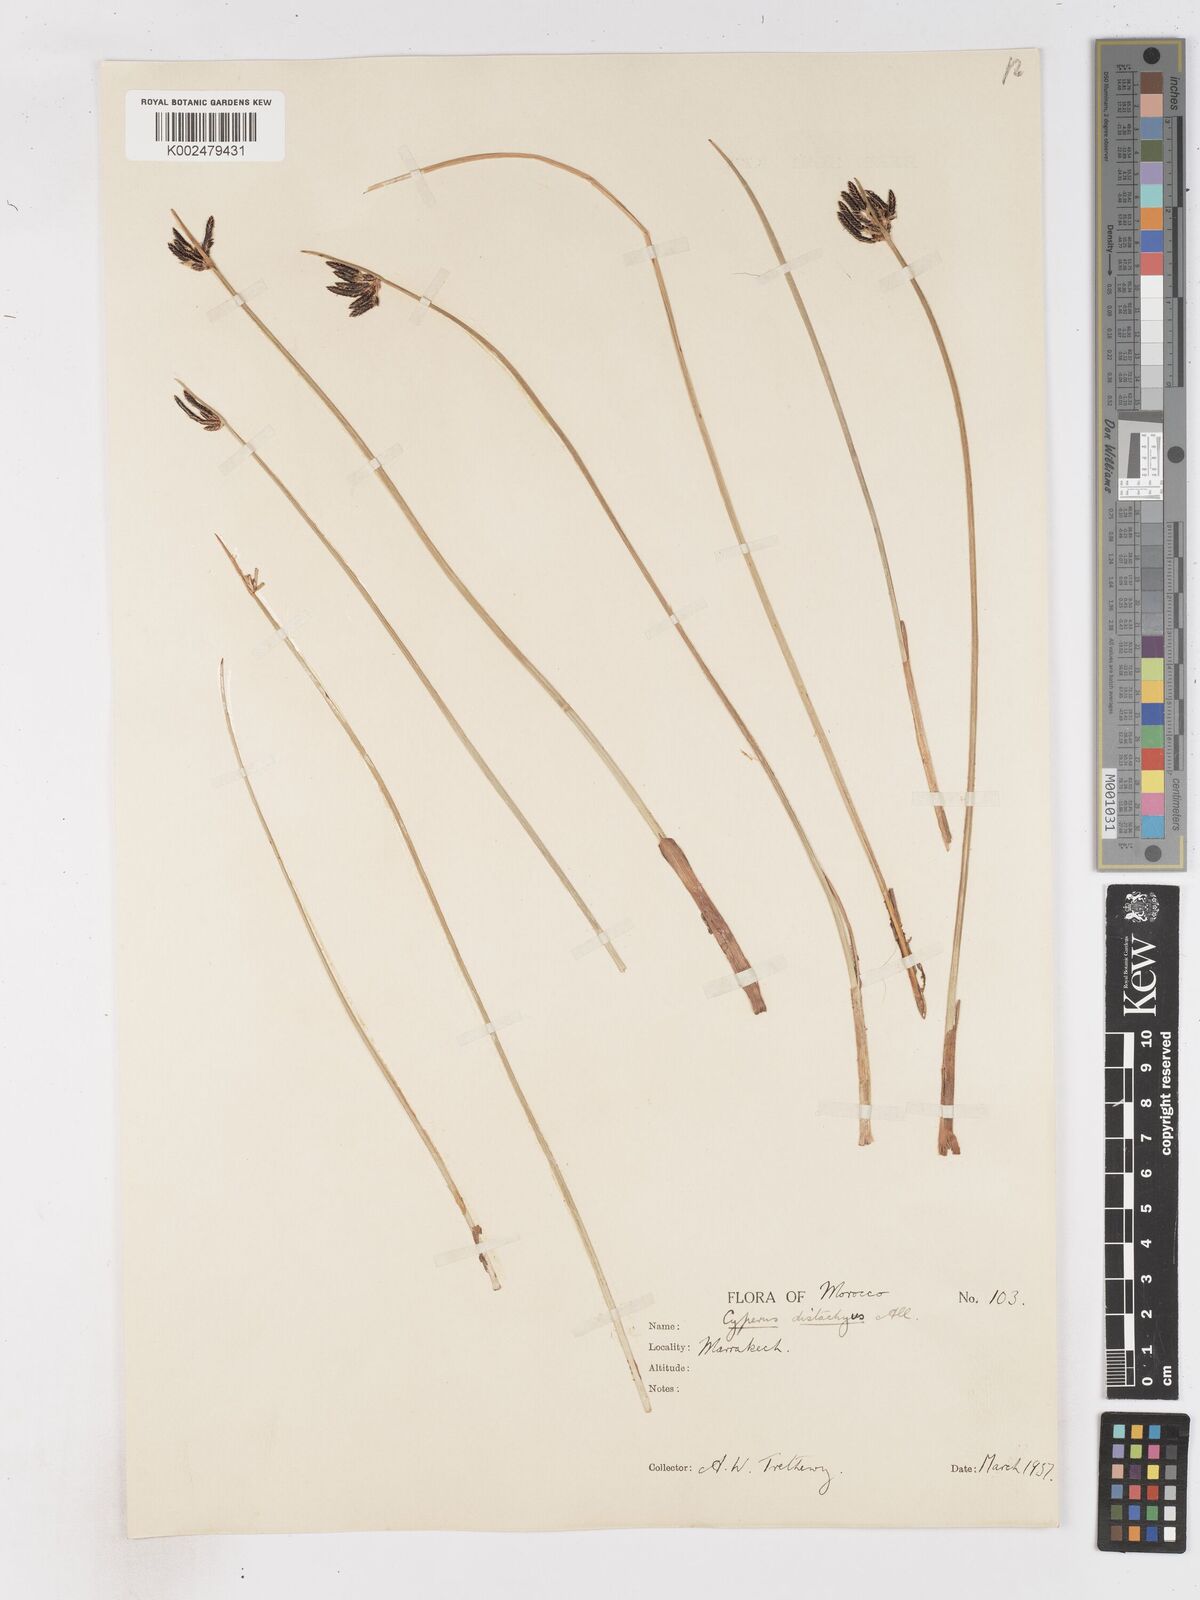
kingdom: Plantae
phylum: Tracheophyta
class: Liliopsida
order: Poales
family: Cyperaceae
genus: Cyperus
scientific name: Cyperus laevigatus
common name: Smooth flat sedge
